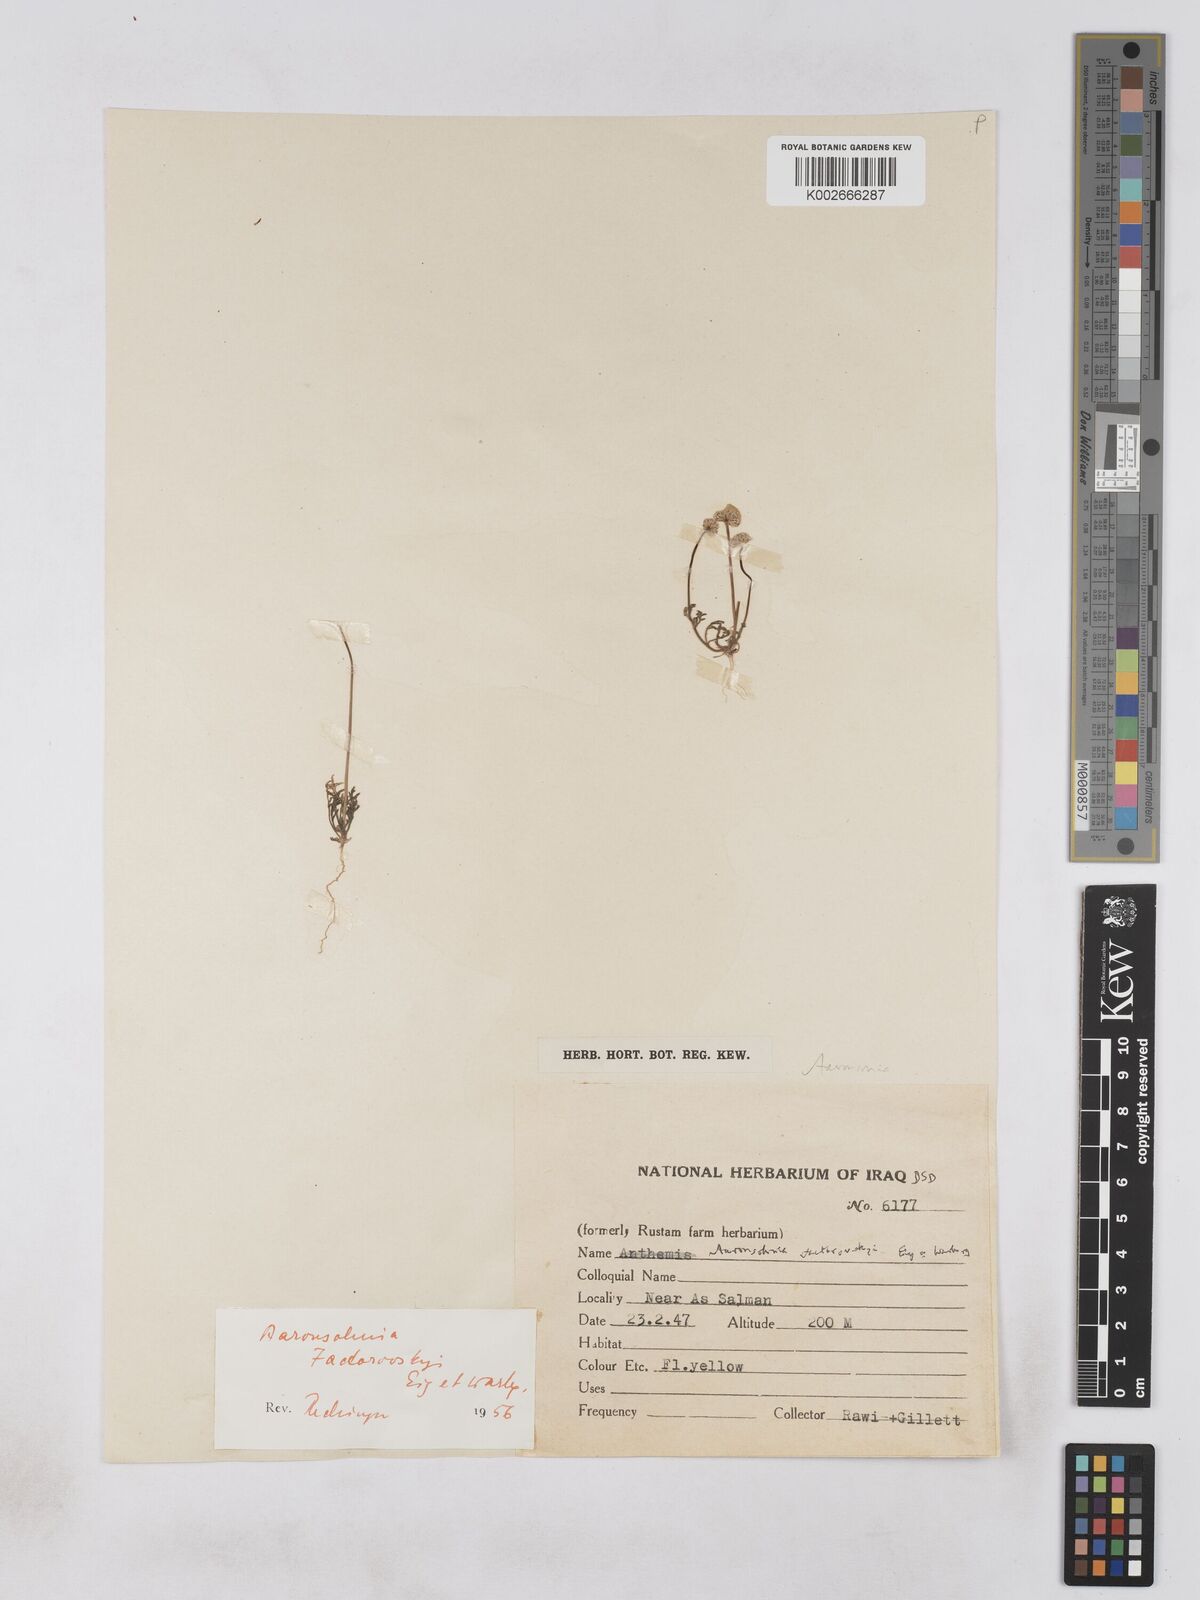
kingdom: Plantae
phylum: Tracheophyta
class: Magnoliopsida
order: Asterales
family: Asteraceae
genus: Otoglyphis
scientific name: Otoglyphis factorovskyi
